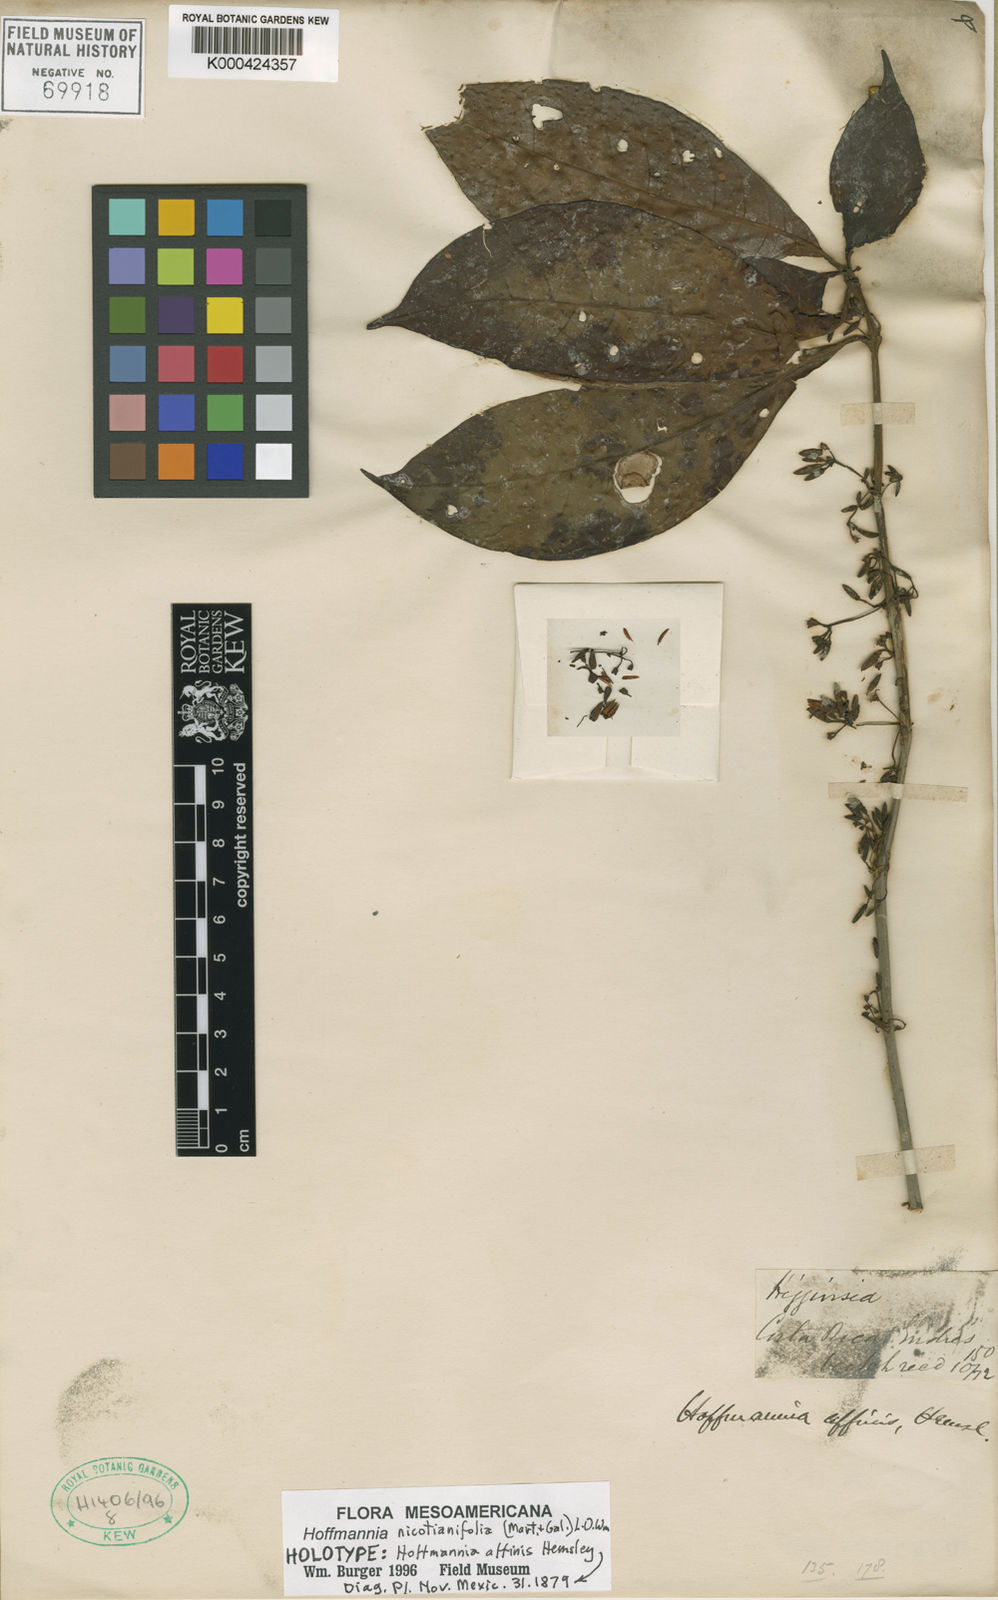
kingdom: Plantae
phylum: Tracheophyta
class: Magnoliopsida
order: Gentianales
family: Rubiaceae
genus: Hoffmannia
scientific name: Hoffmannia nicotianifolia
